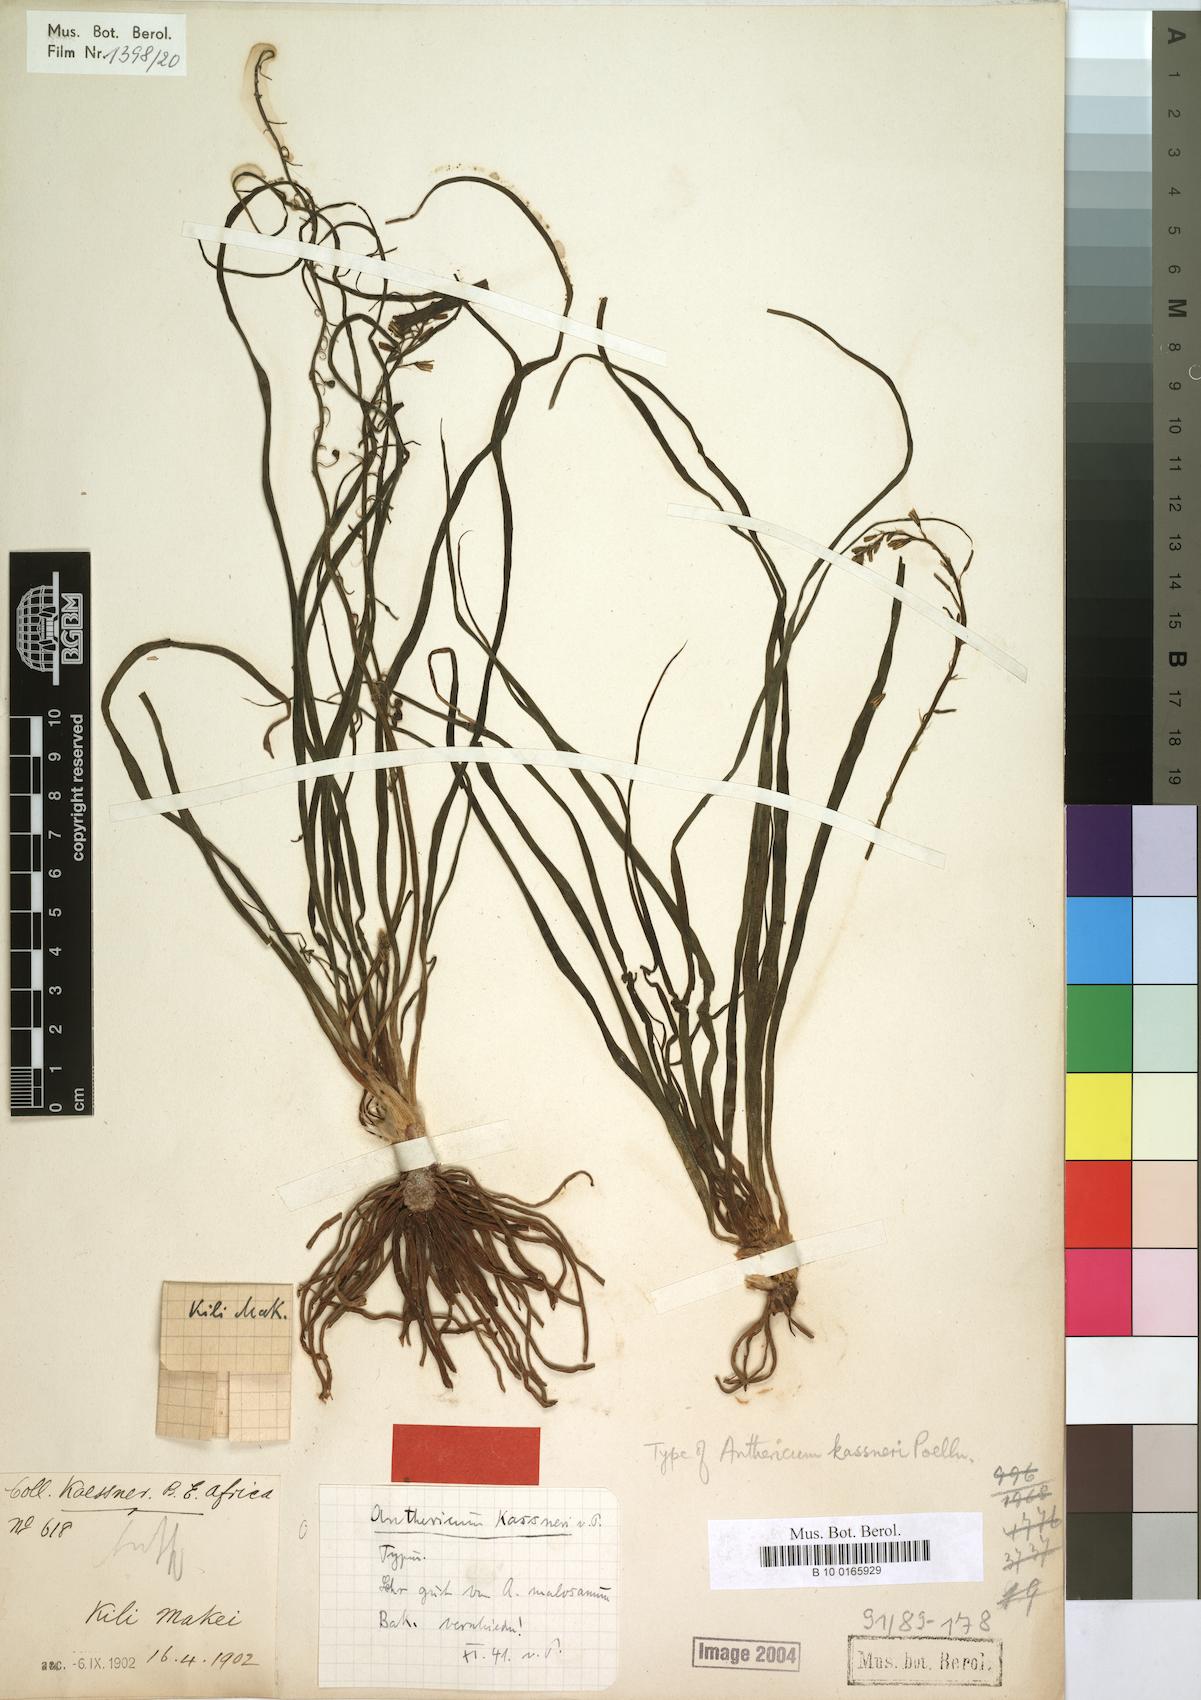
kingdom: Plantae
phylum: Tracheophyta
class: Liliopsida
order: Asparagales
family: Asphodelaceae
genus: Trachyandra
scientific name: Trachyandra saltii
